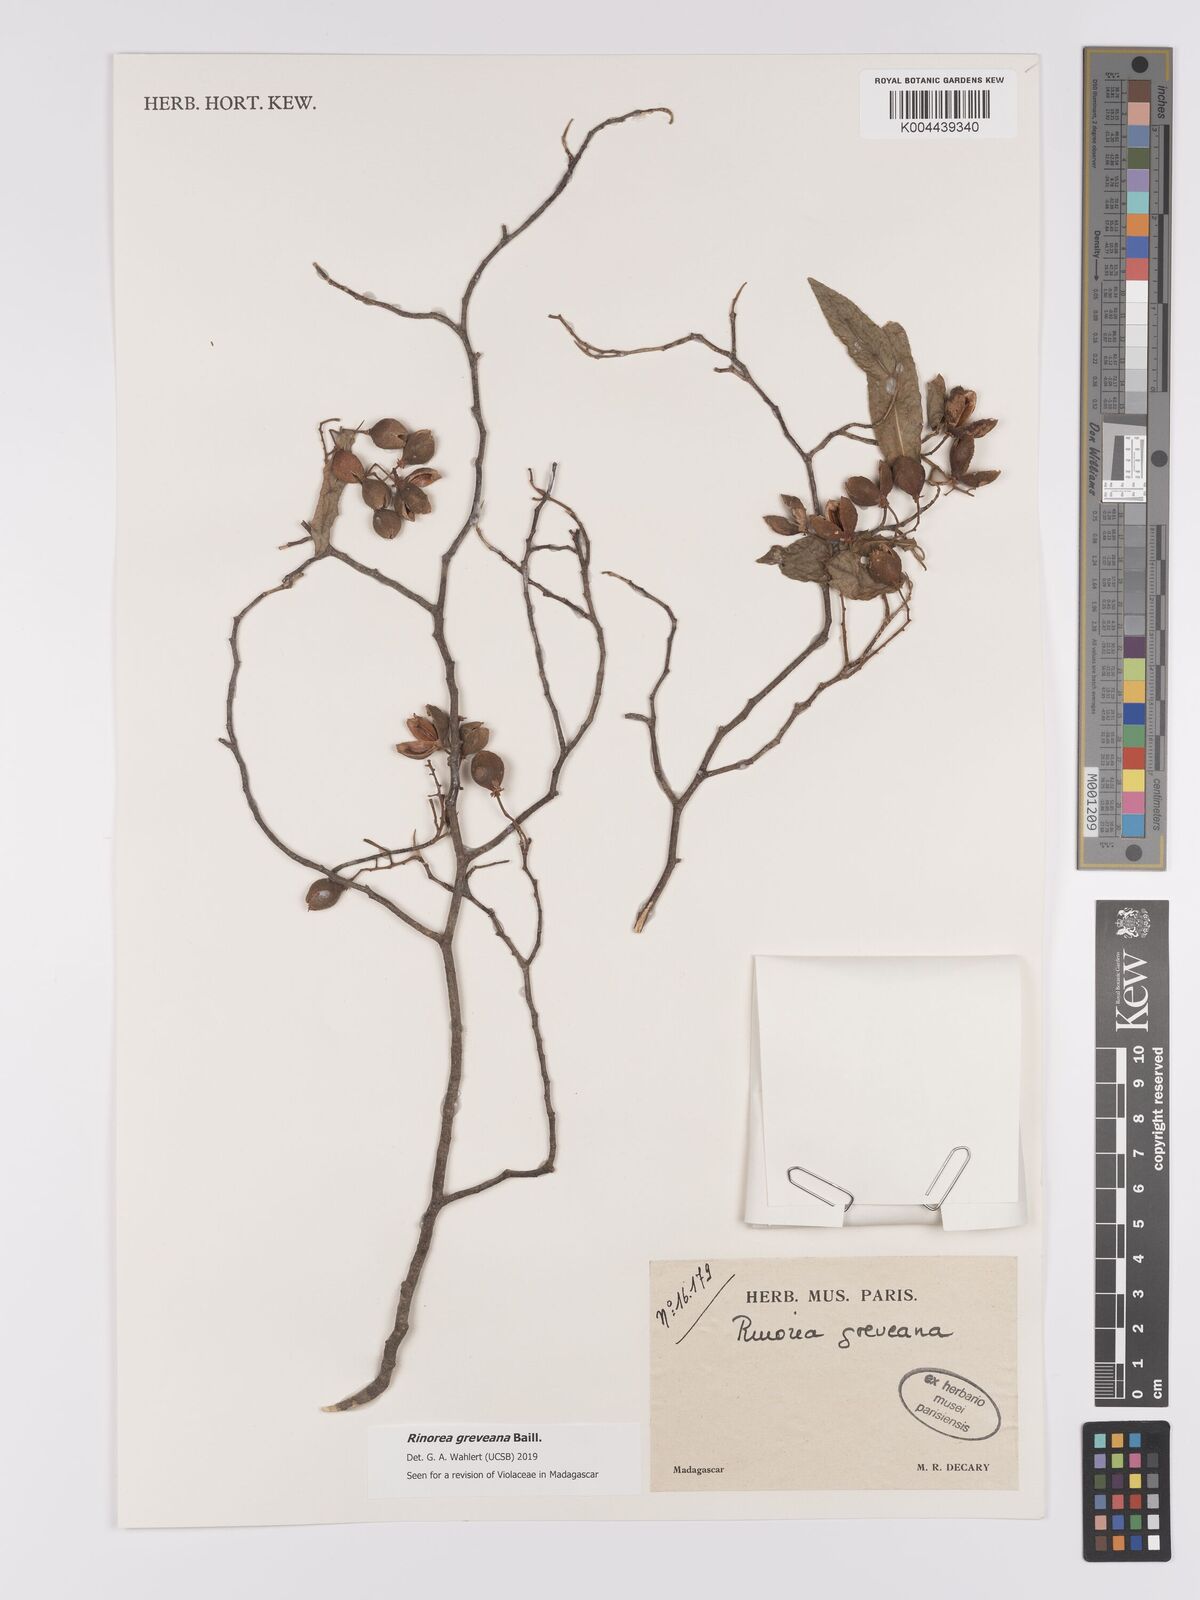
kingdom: Plantae
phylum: Tracheophyta
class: Magnoliopsida
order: Malpighiales
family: Violaceae
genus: Rinorea
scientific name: Rinorea greveana
